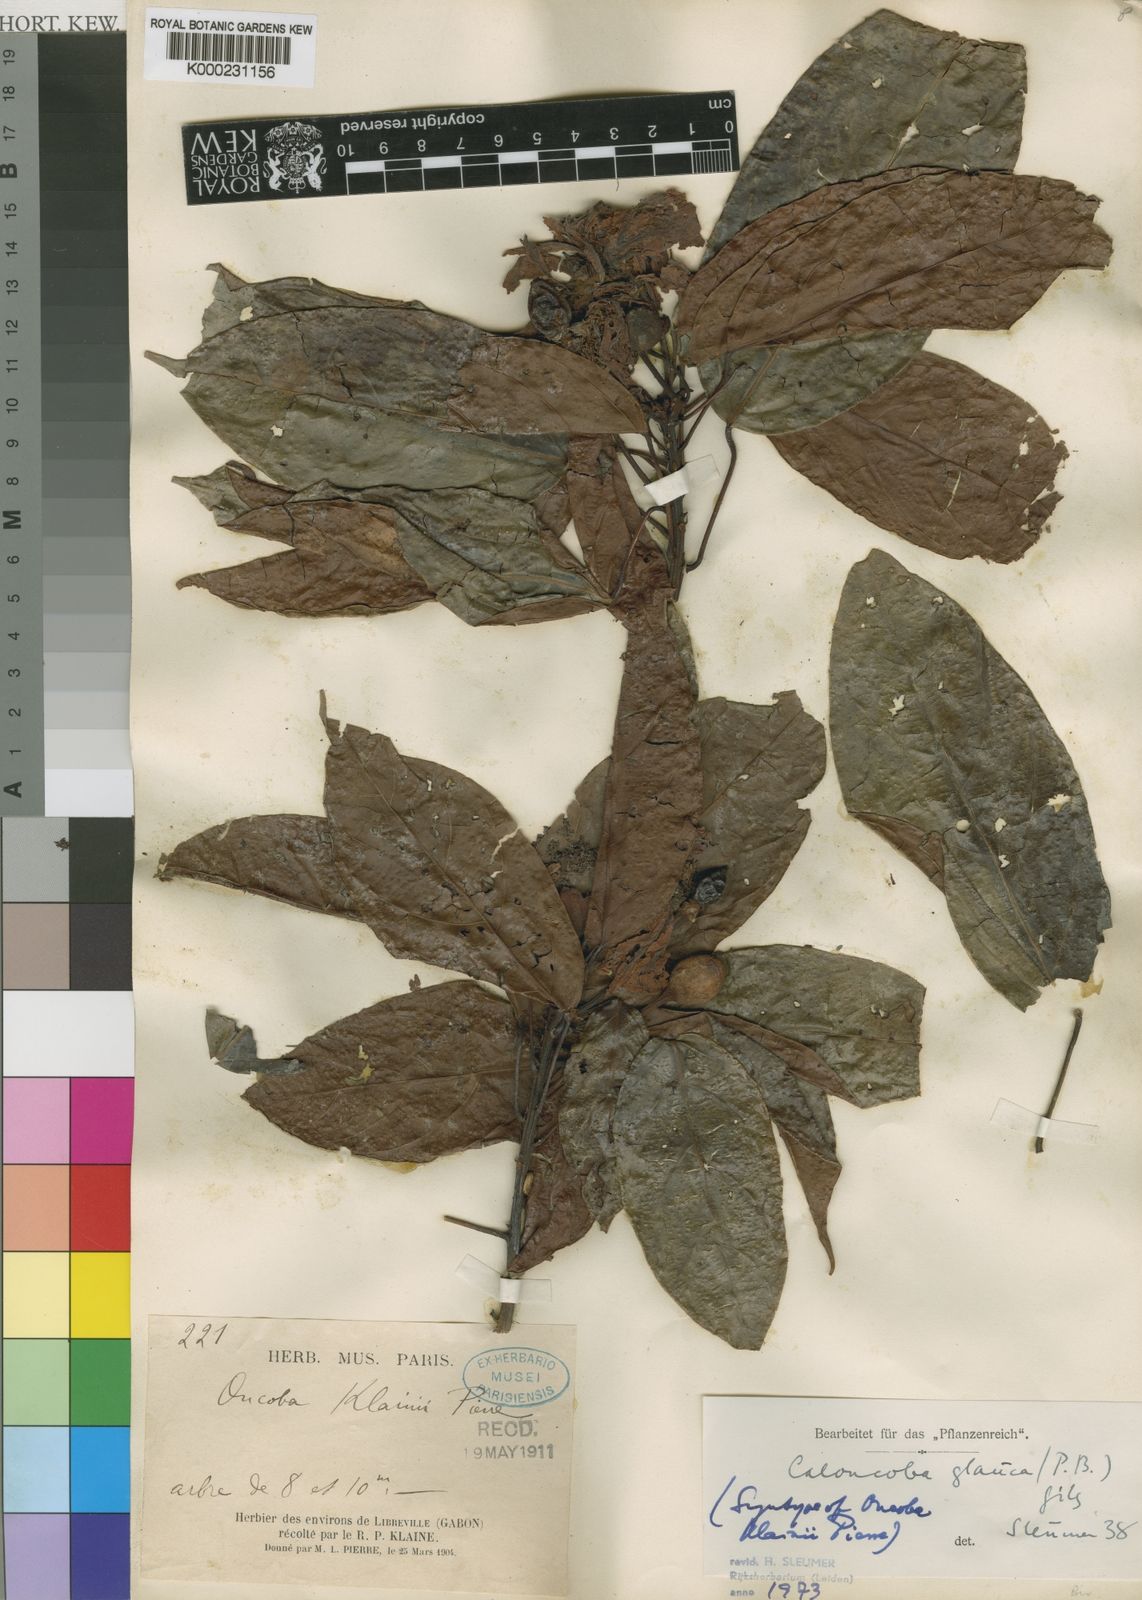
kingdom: Plantae
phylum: Tracheophyta
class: Magnoliopsida
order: Malpighiales
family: Achariaceae
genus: Caloncoba
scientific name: Caloncoba glauca
